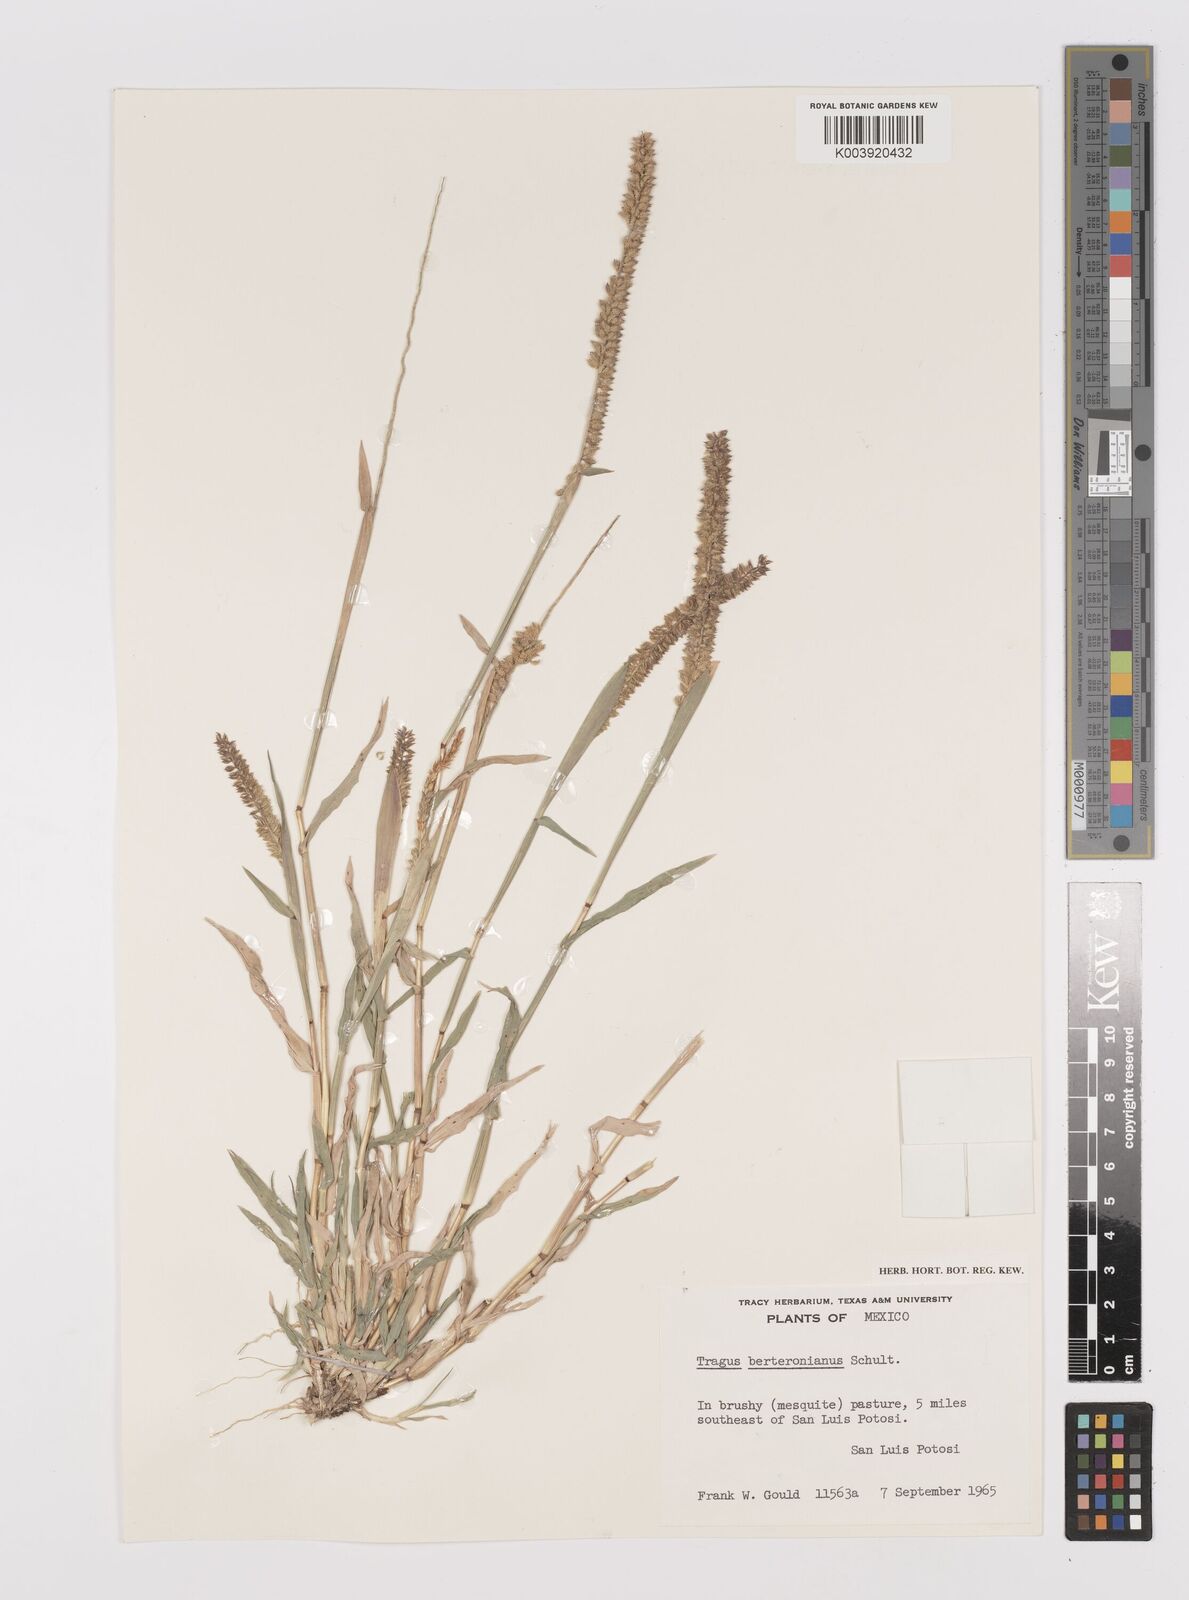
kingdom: Plantae
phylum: Tracheophyta
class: Liliopsida
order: Poales
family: Poaceae
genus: Tragus
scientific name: Tragus berteronianus
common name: African bur-grass
